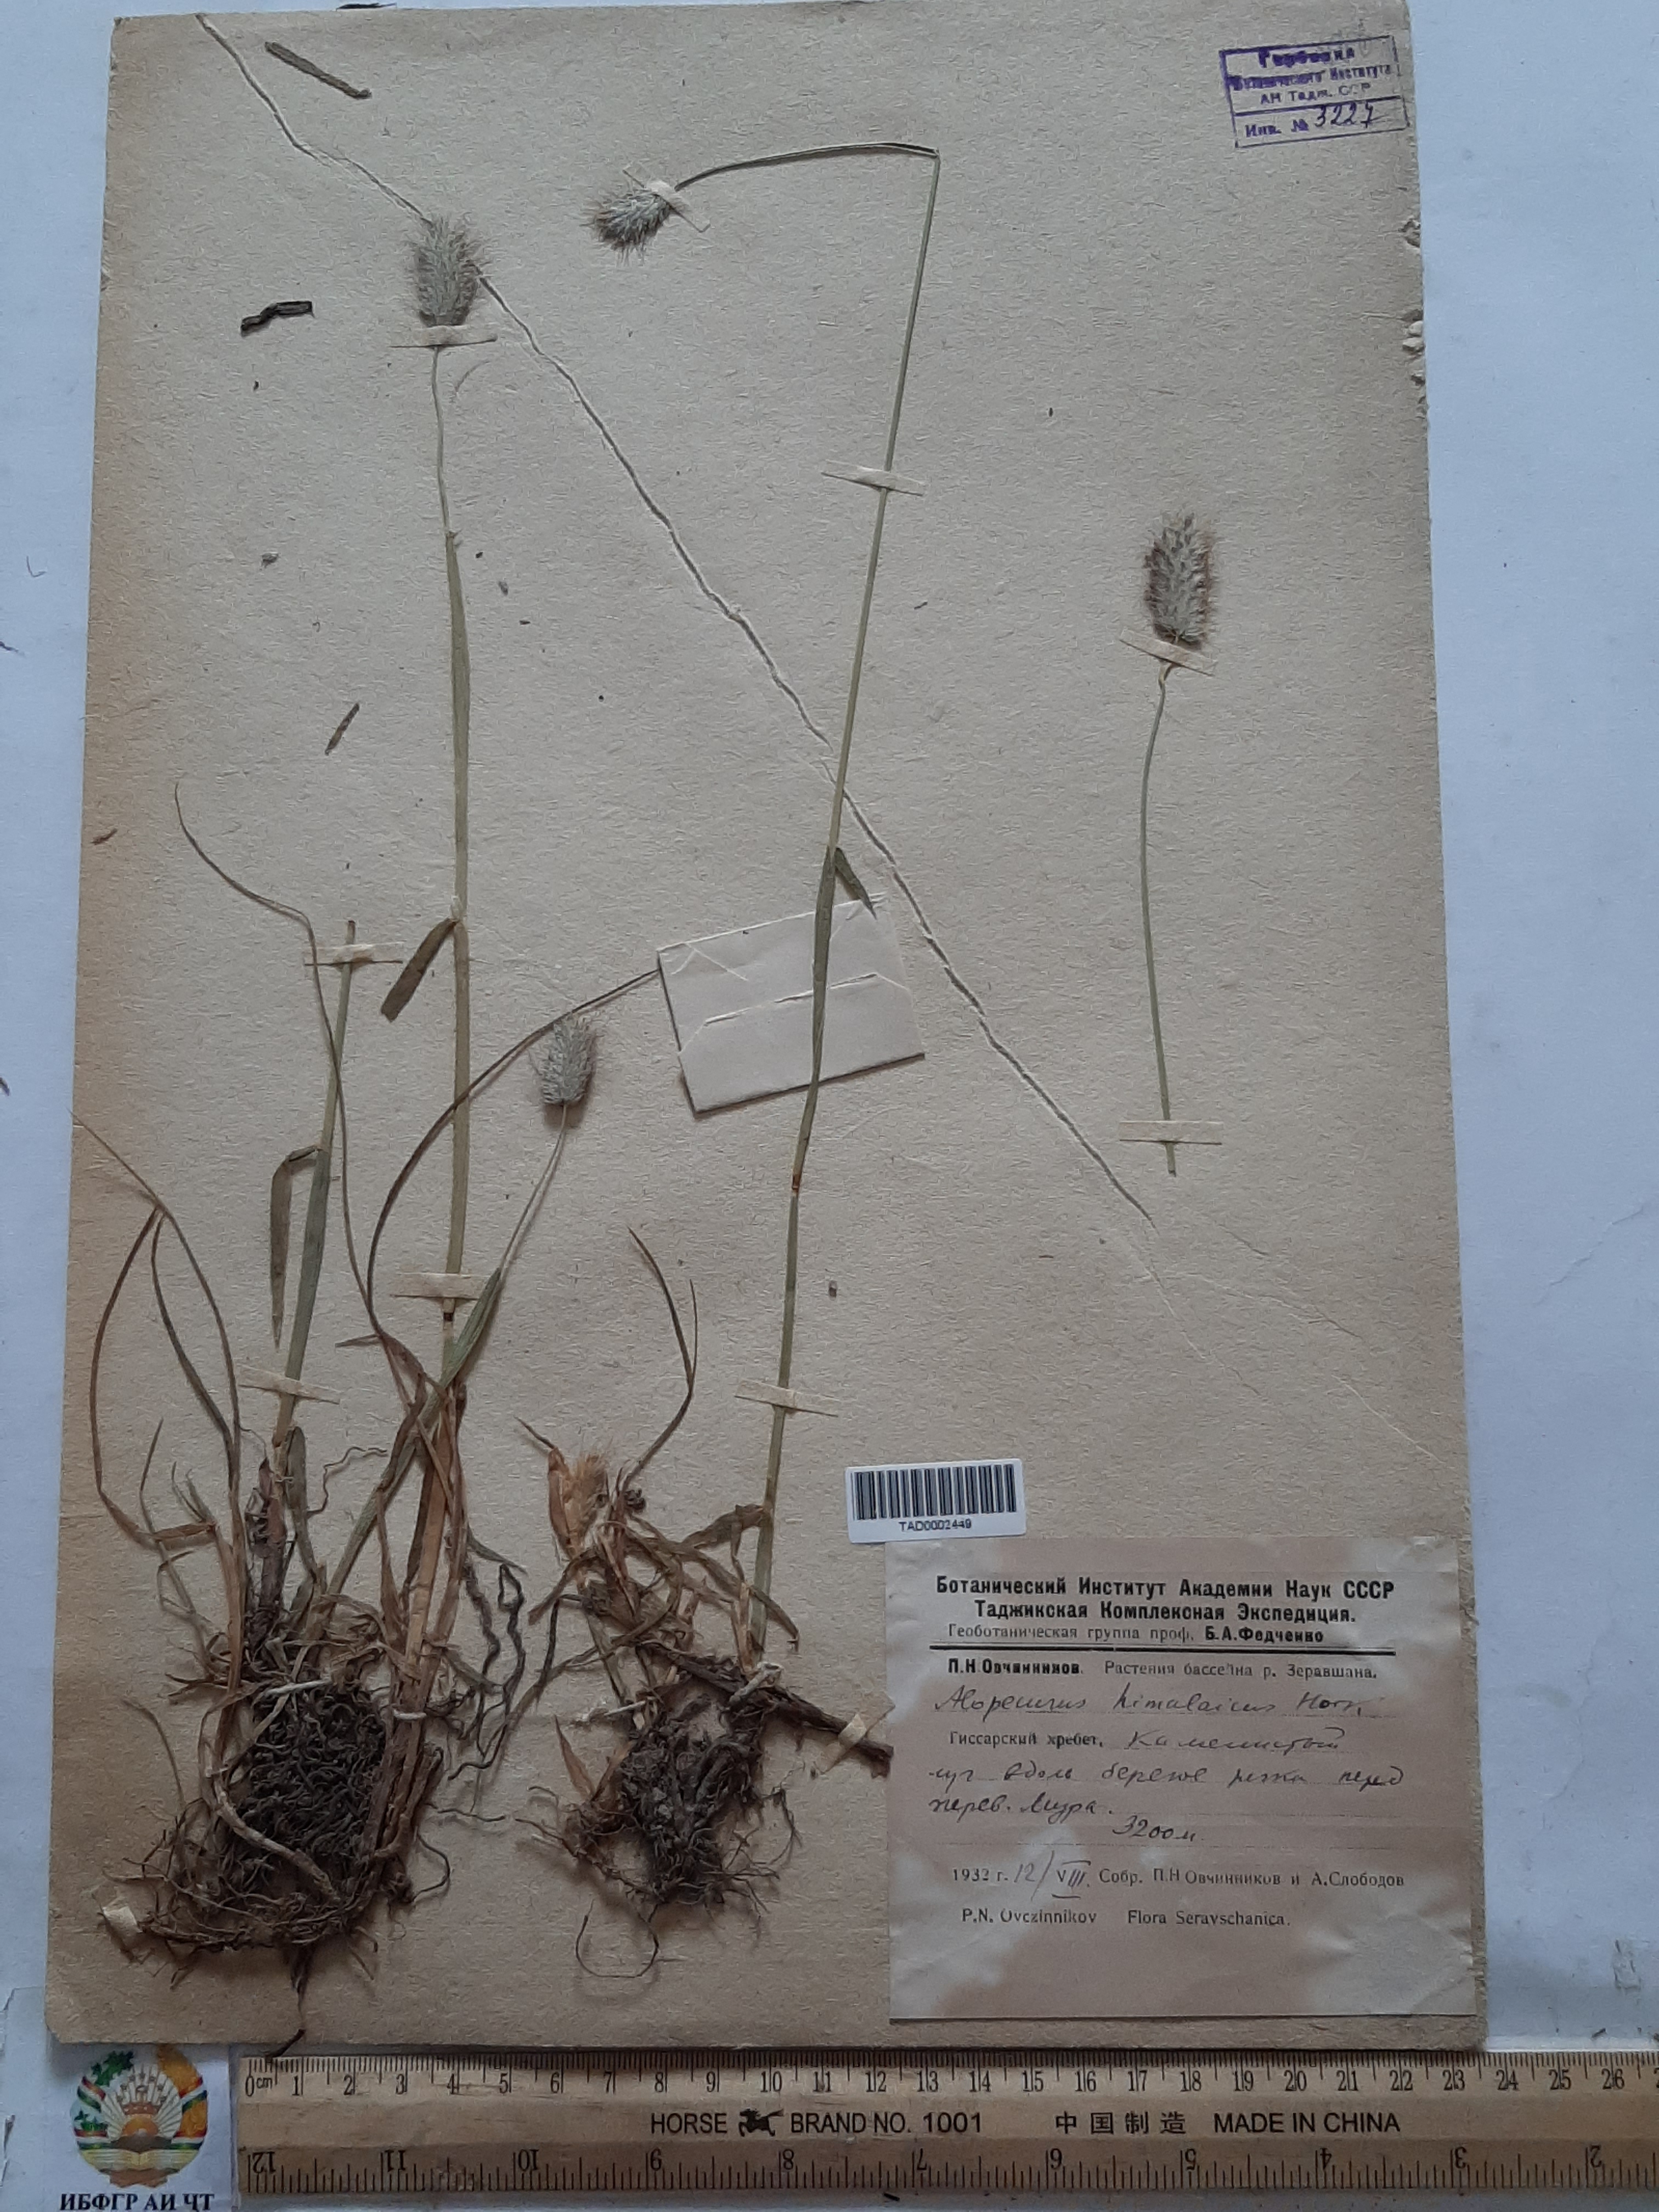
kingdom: Plantae
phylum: Tracheophyta
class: Liliopsida
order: Poales
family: Poaceae
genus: Alopecurus
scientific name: Alopecurus himalaicus
